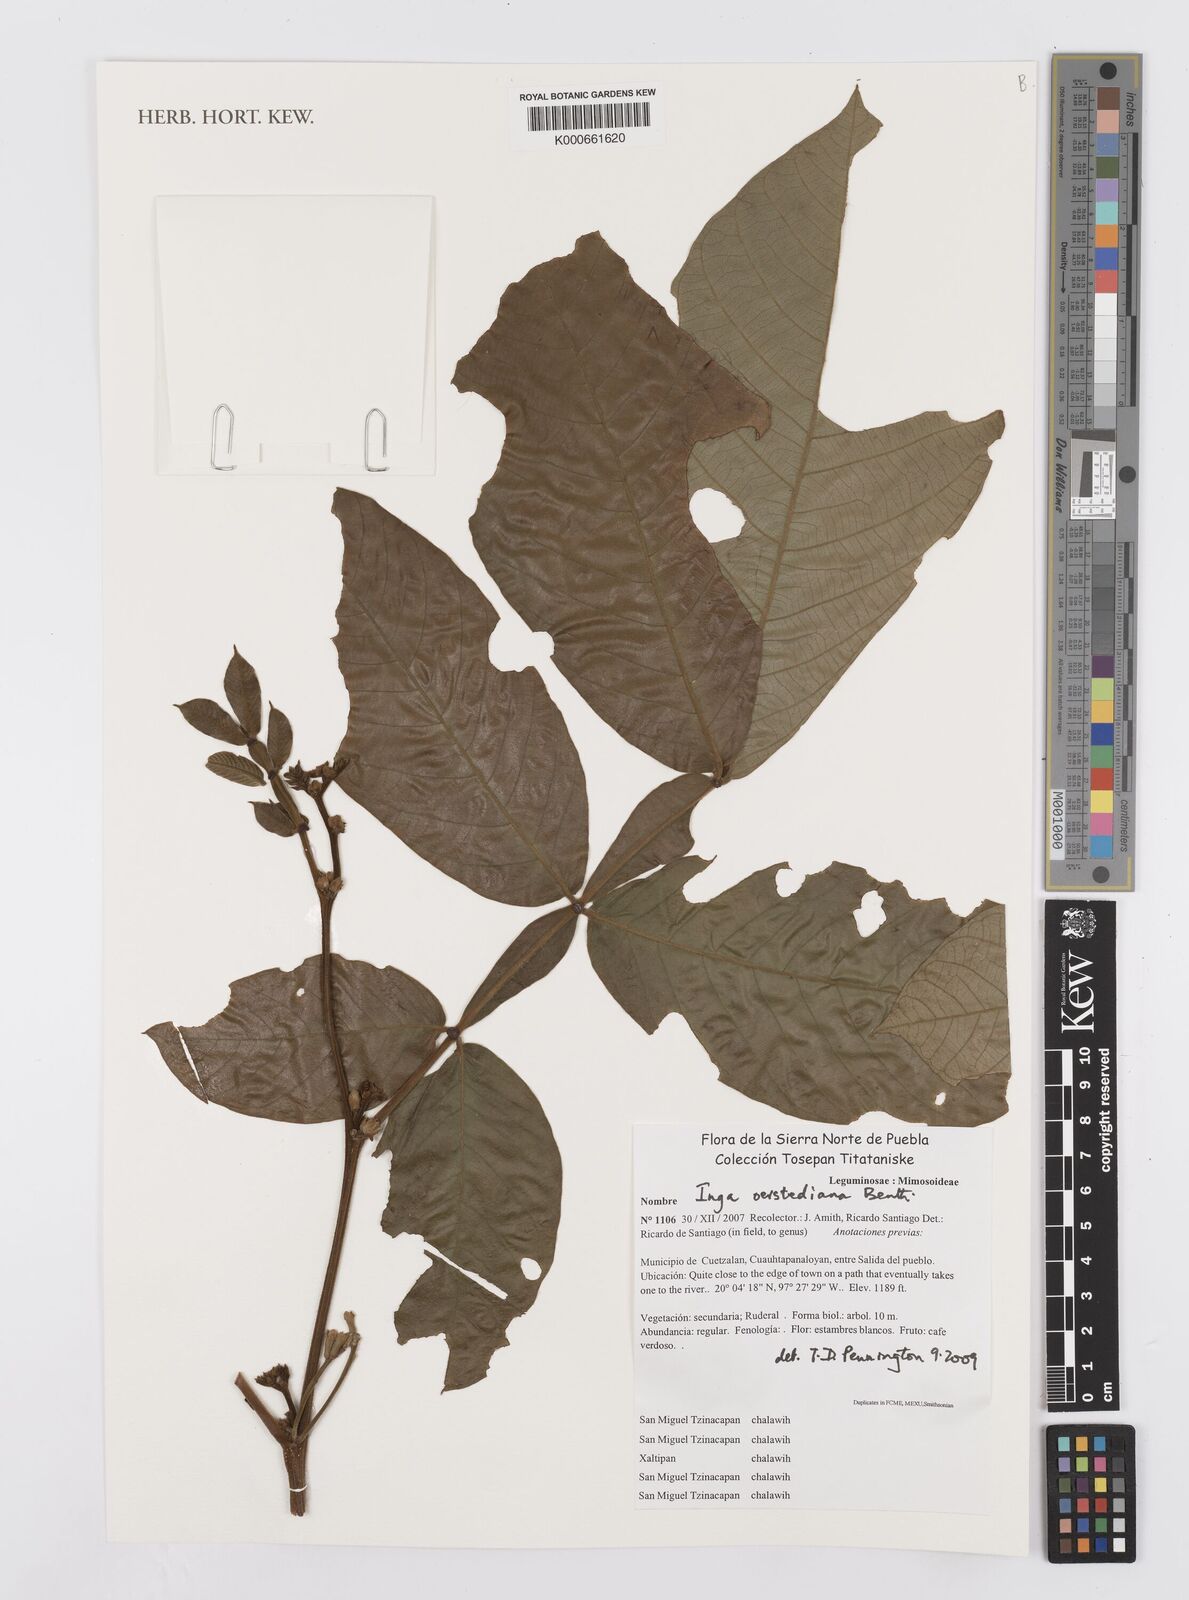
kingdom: Plantae
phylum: Tracheophyta
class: Magnoliopsida
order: Fabales
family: Fabaceae
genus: Inga
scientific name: Inga oerstediana
